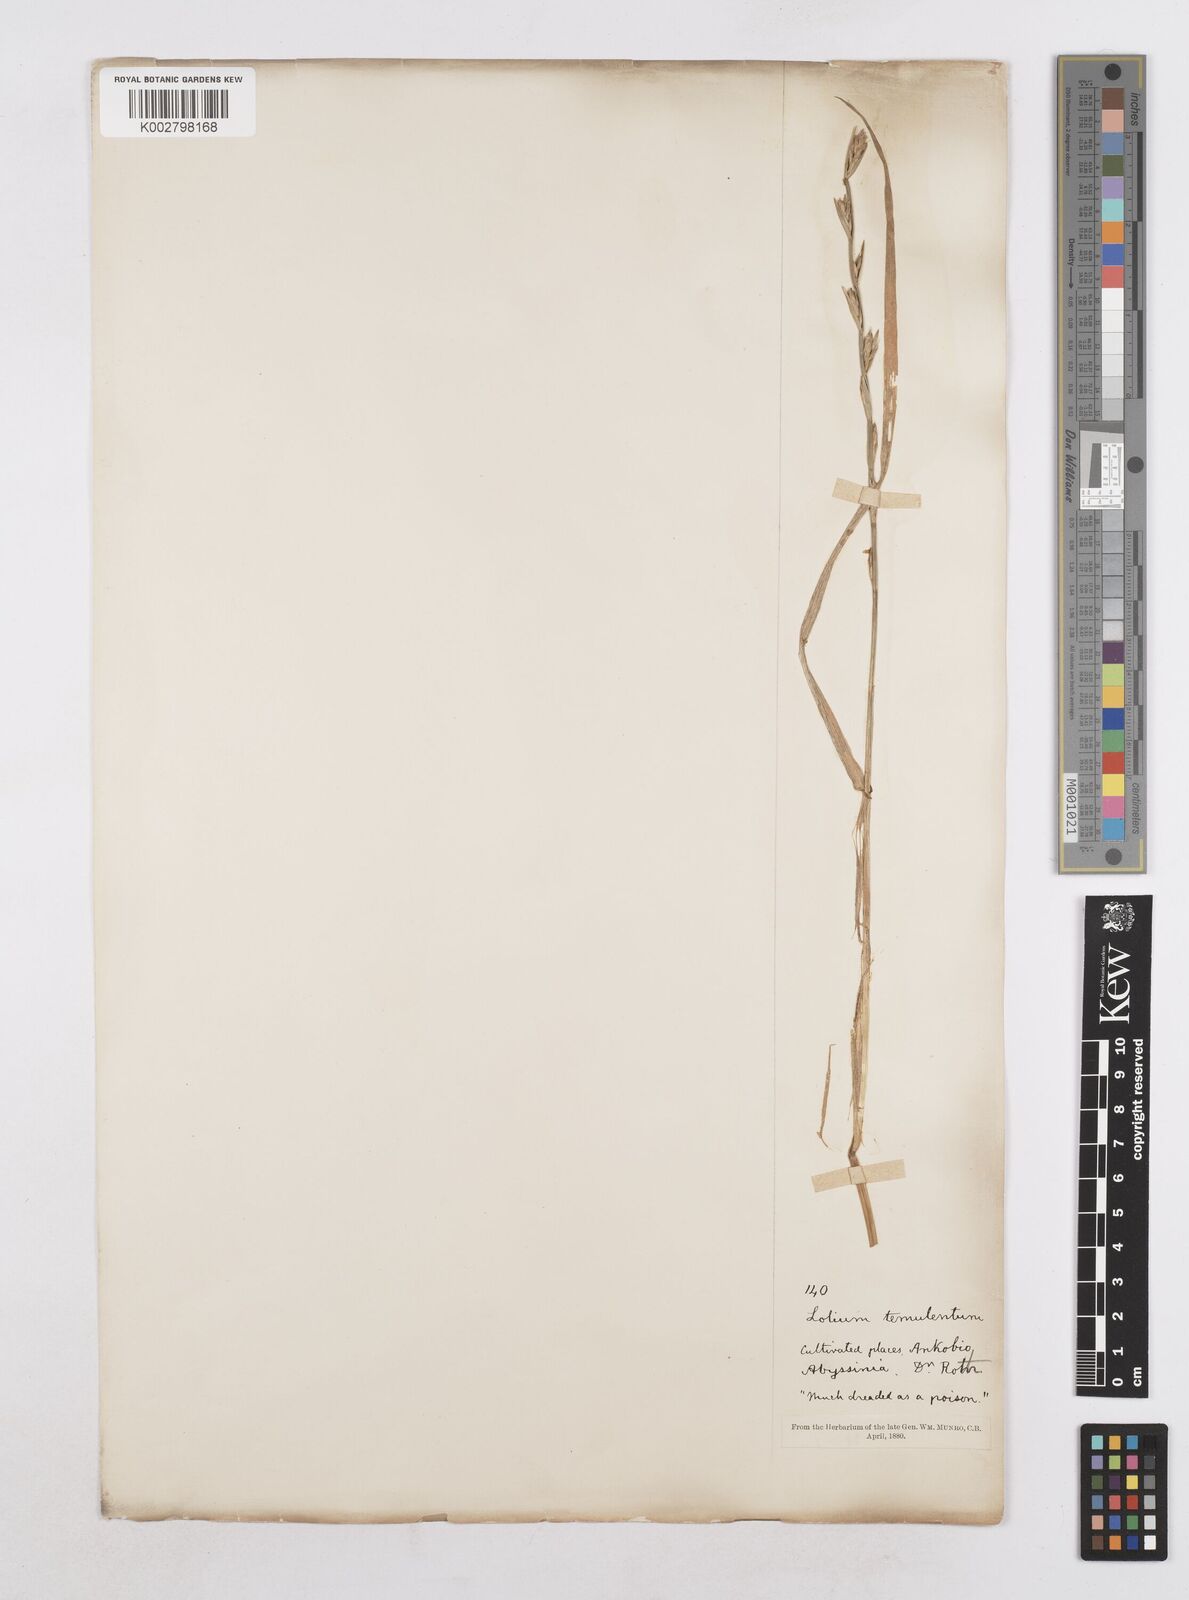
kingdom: Plantae
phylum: Tracheophyta
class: Liliopsida
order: Poales
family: Poaceae
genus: Lolium
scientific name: Lolium temulentum
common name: Darnel
